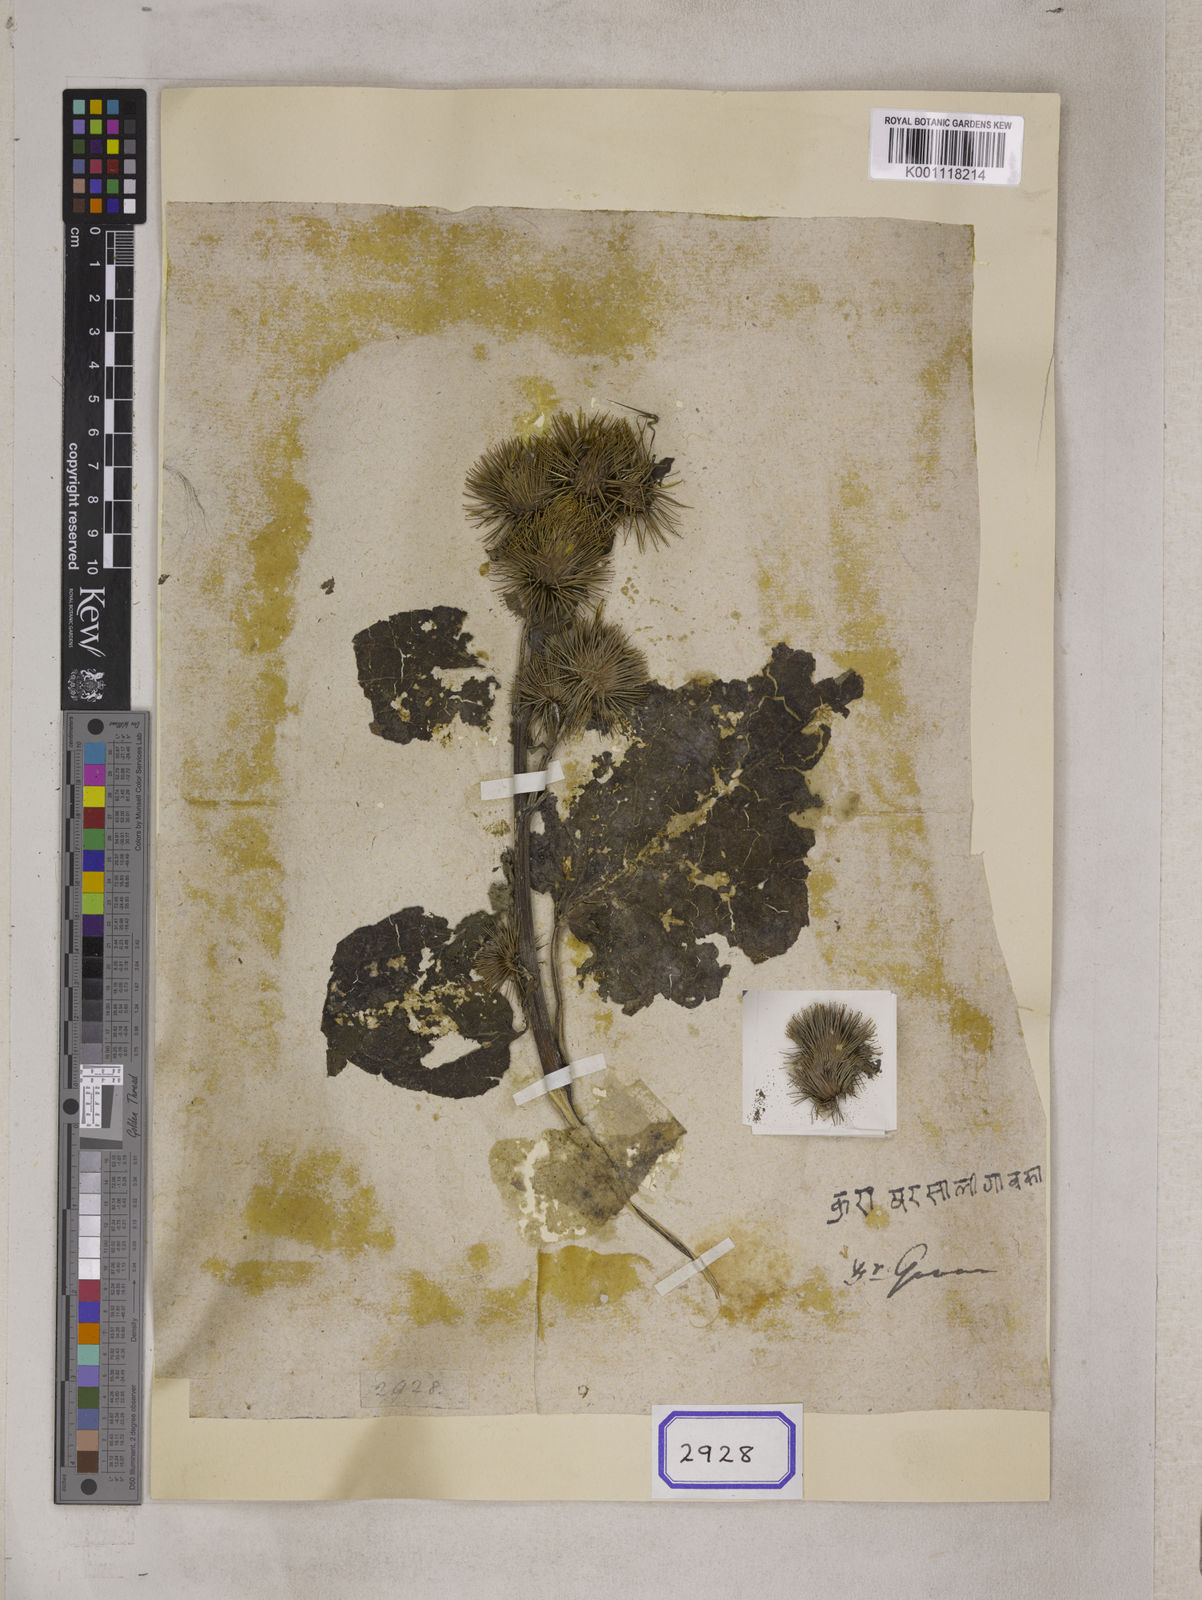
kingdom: Plantae
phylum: Tracheophyta
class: Magnoliopsida
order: Asterales
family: Asteraceae
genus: Arctium
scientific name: Arctium lappa
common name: Greater burdock
